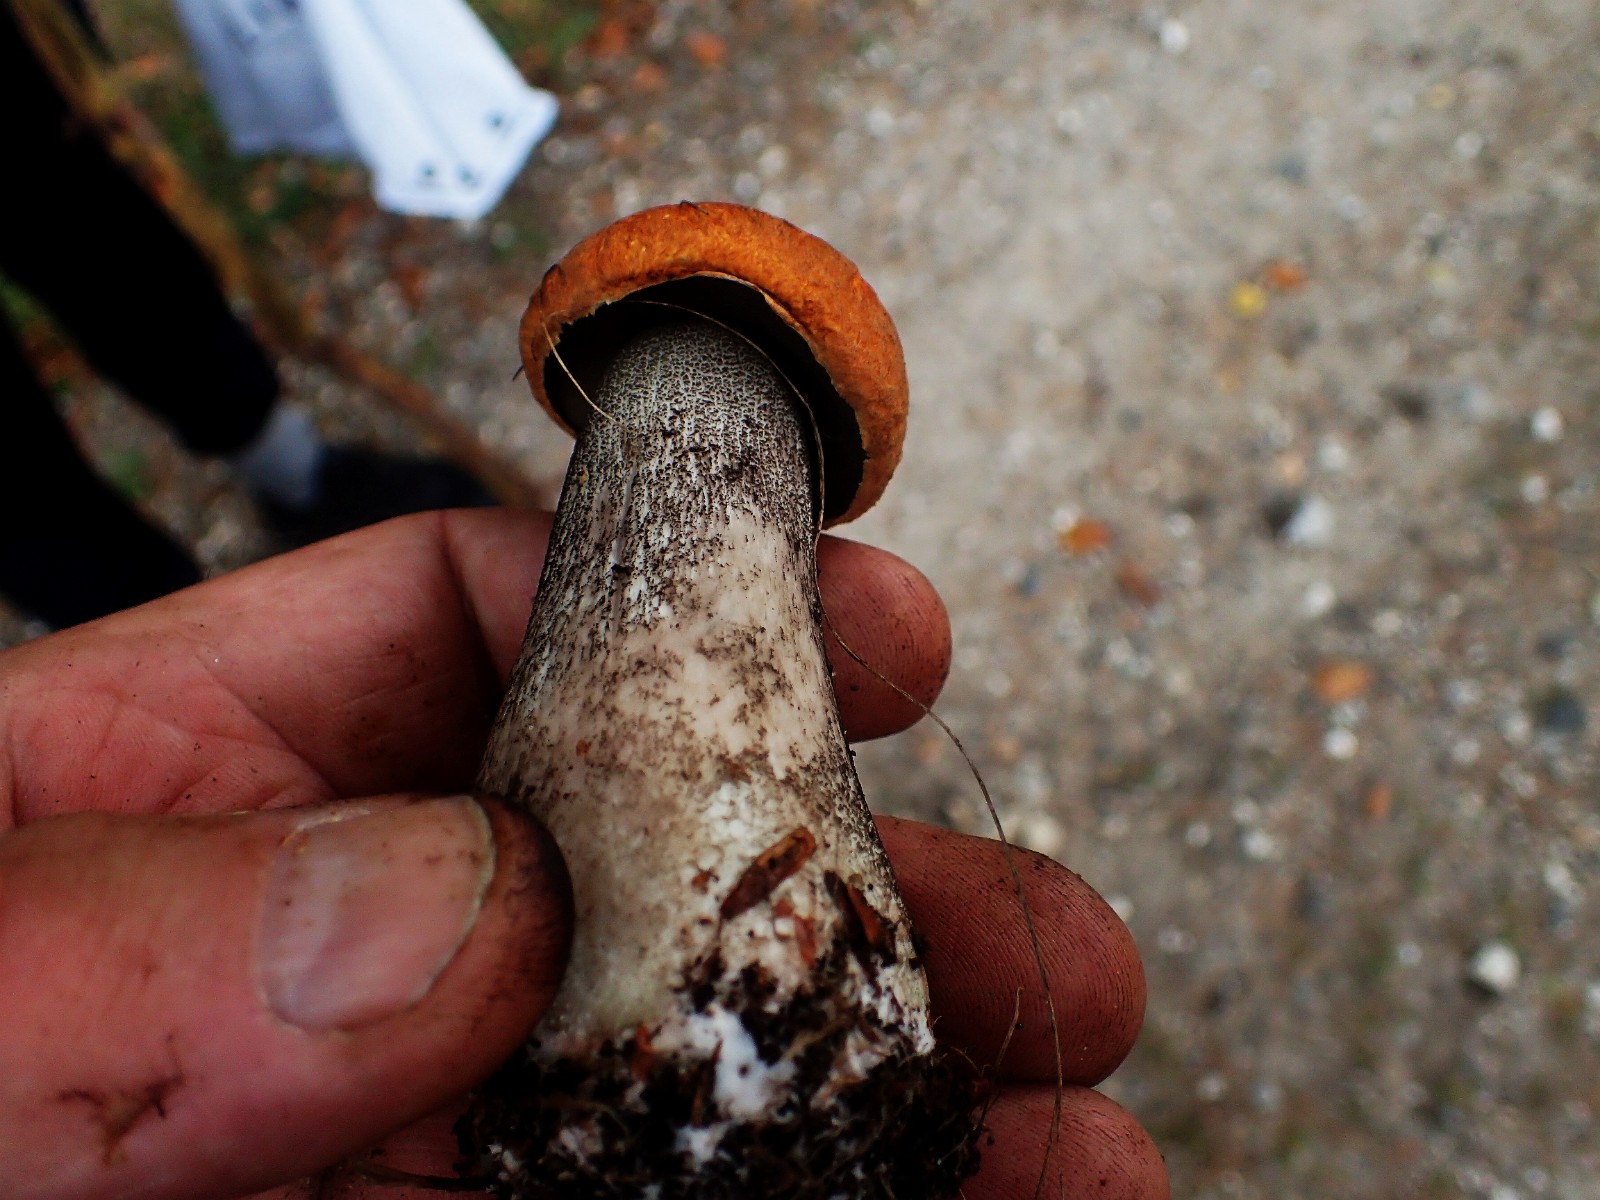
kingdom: Fungi
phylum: Basidiomycota
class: Agaricomycetes
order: Boletales
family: Boletaceae
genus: Leccinum
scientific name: Leccinum versipelle
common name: orange skælrørhat
